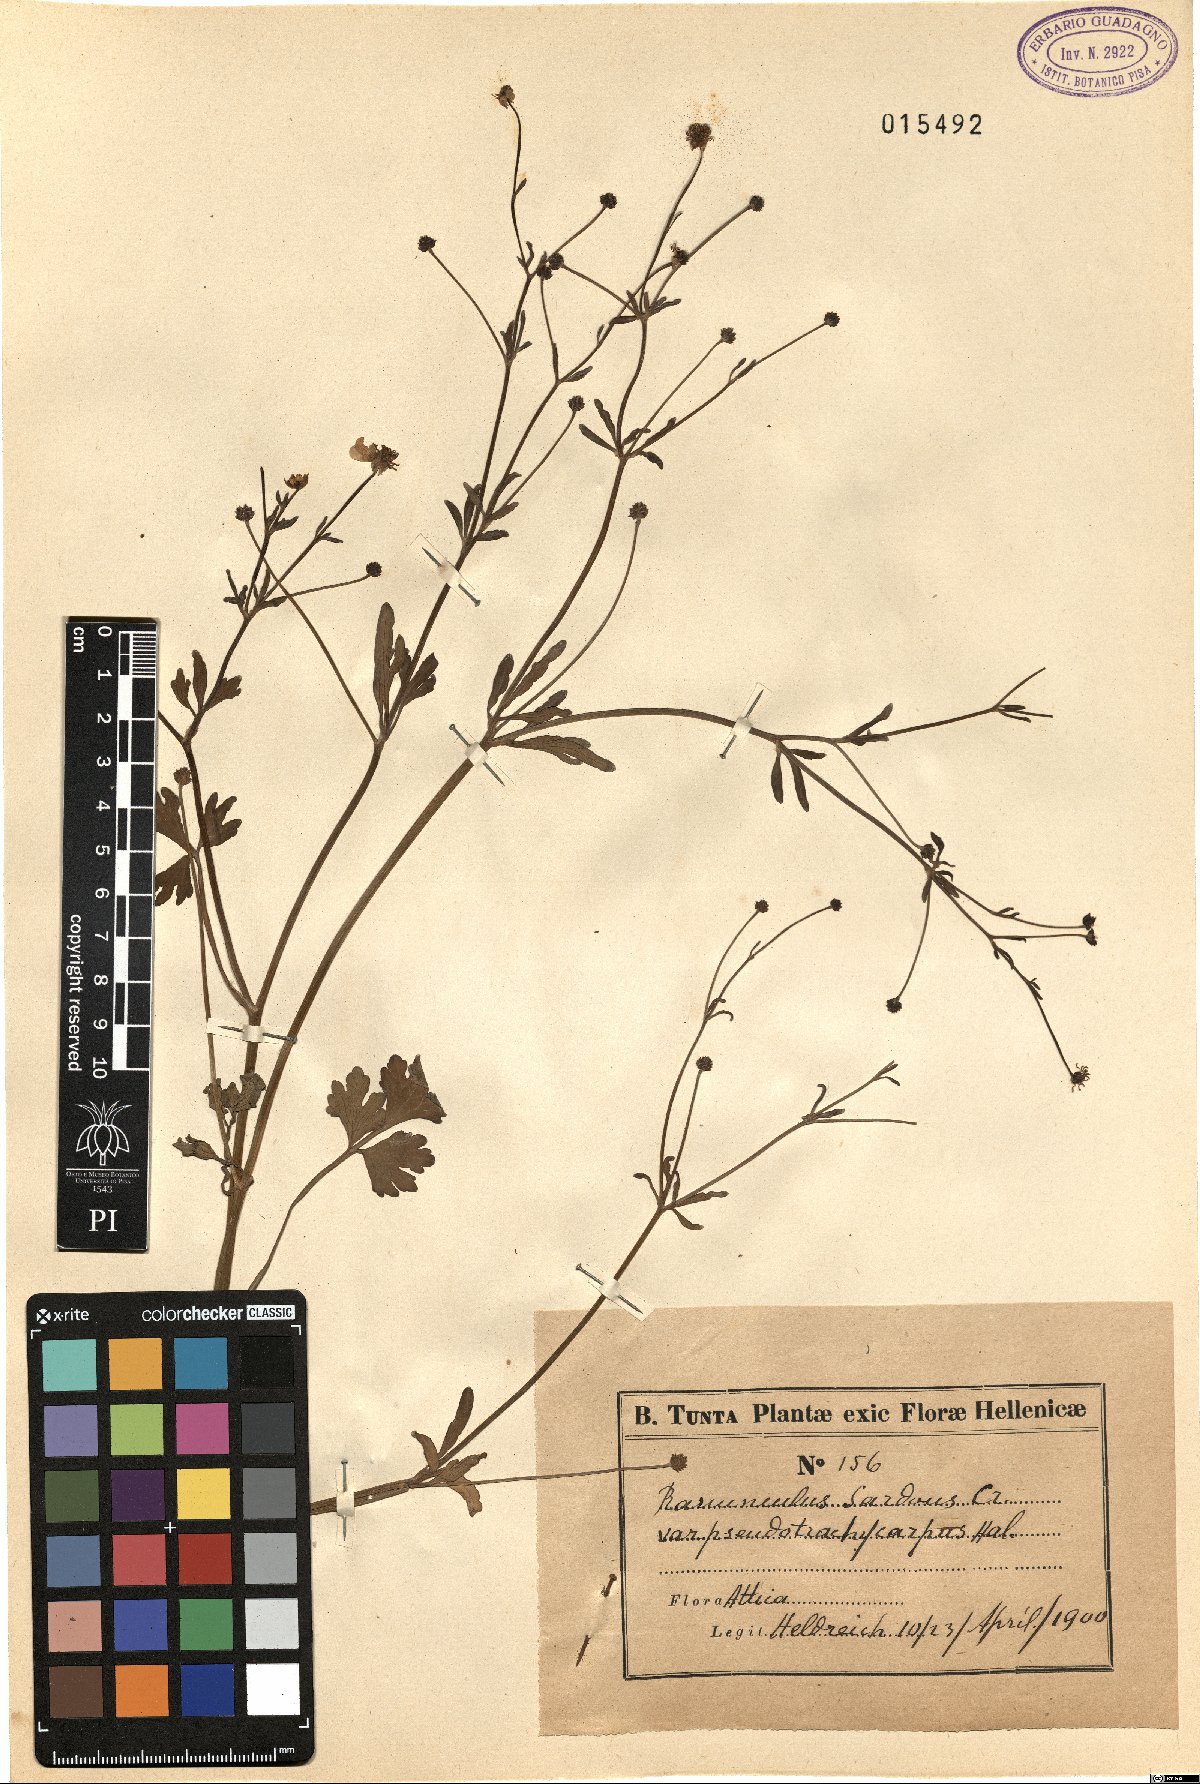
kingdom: Plantae
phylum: Tracheophyta
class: Magnoliopsida
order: Ranunculales
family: Ranunculaceae
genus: Ranunculus
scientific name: Ranunculus sardous
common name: Hairy buttercup
